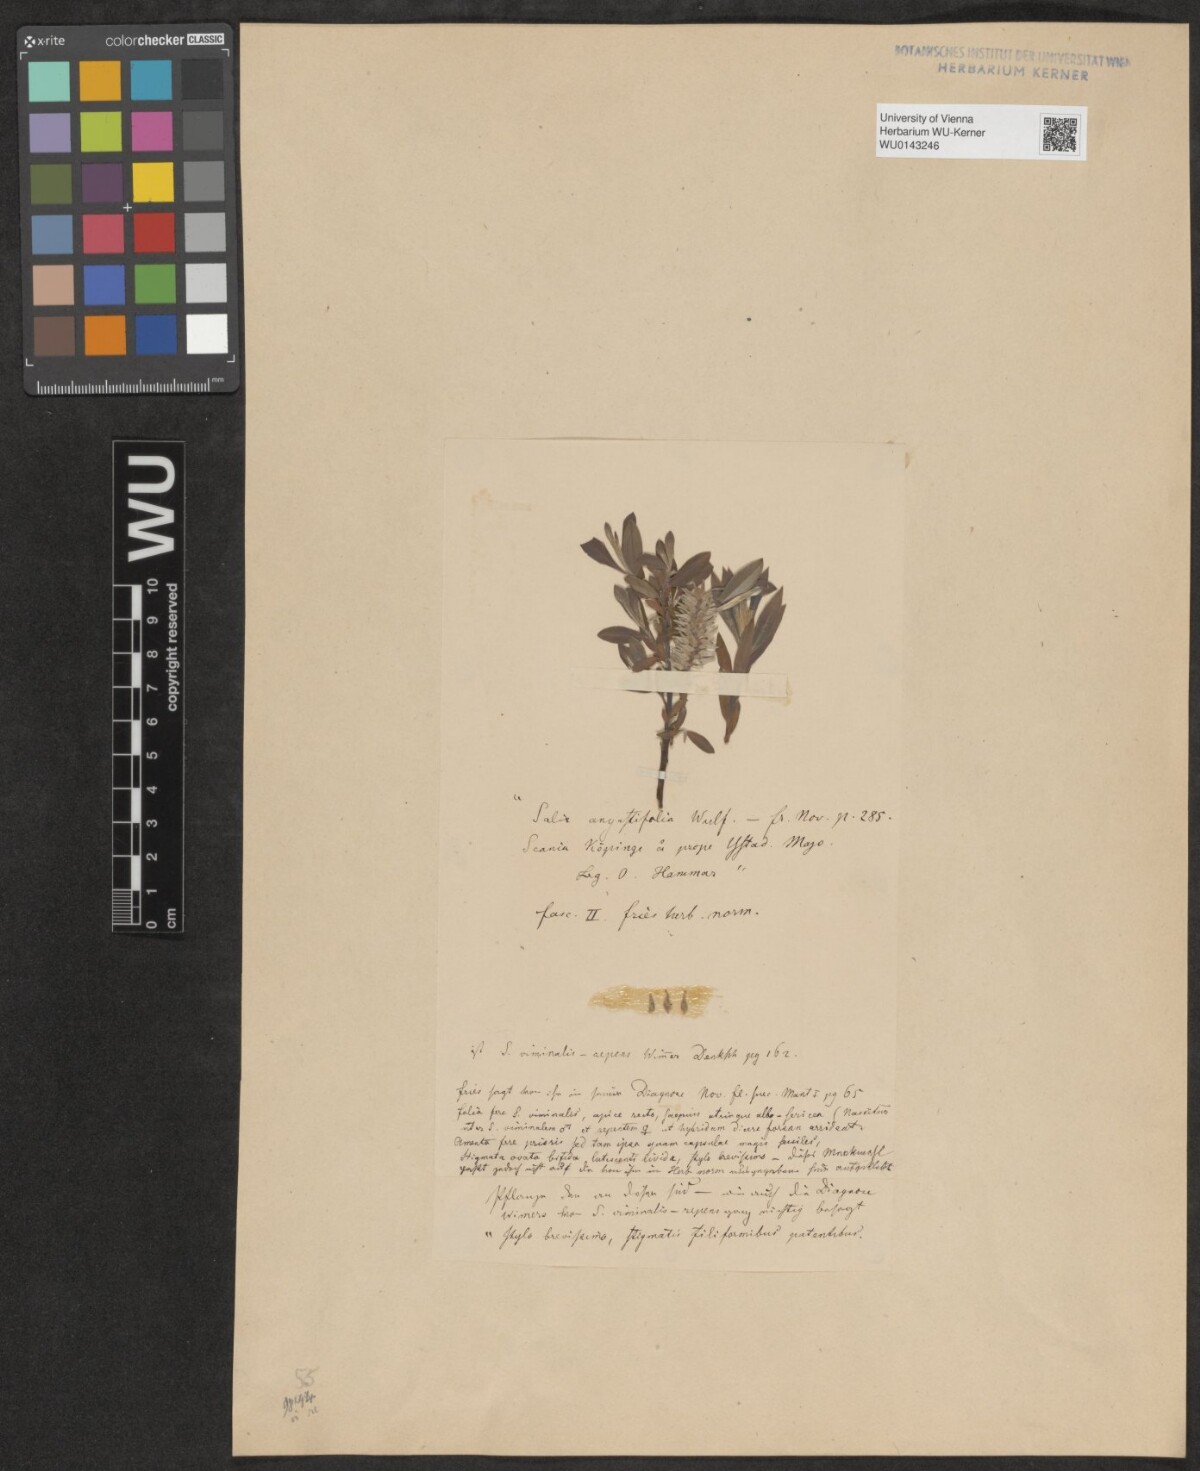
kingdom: Plantae
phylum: Tracheophyta
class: Magnoliopsida
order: Malpighiales
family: Salicaceae
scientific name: Salicaceae
